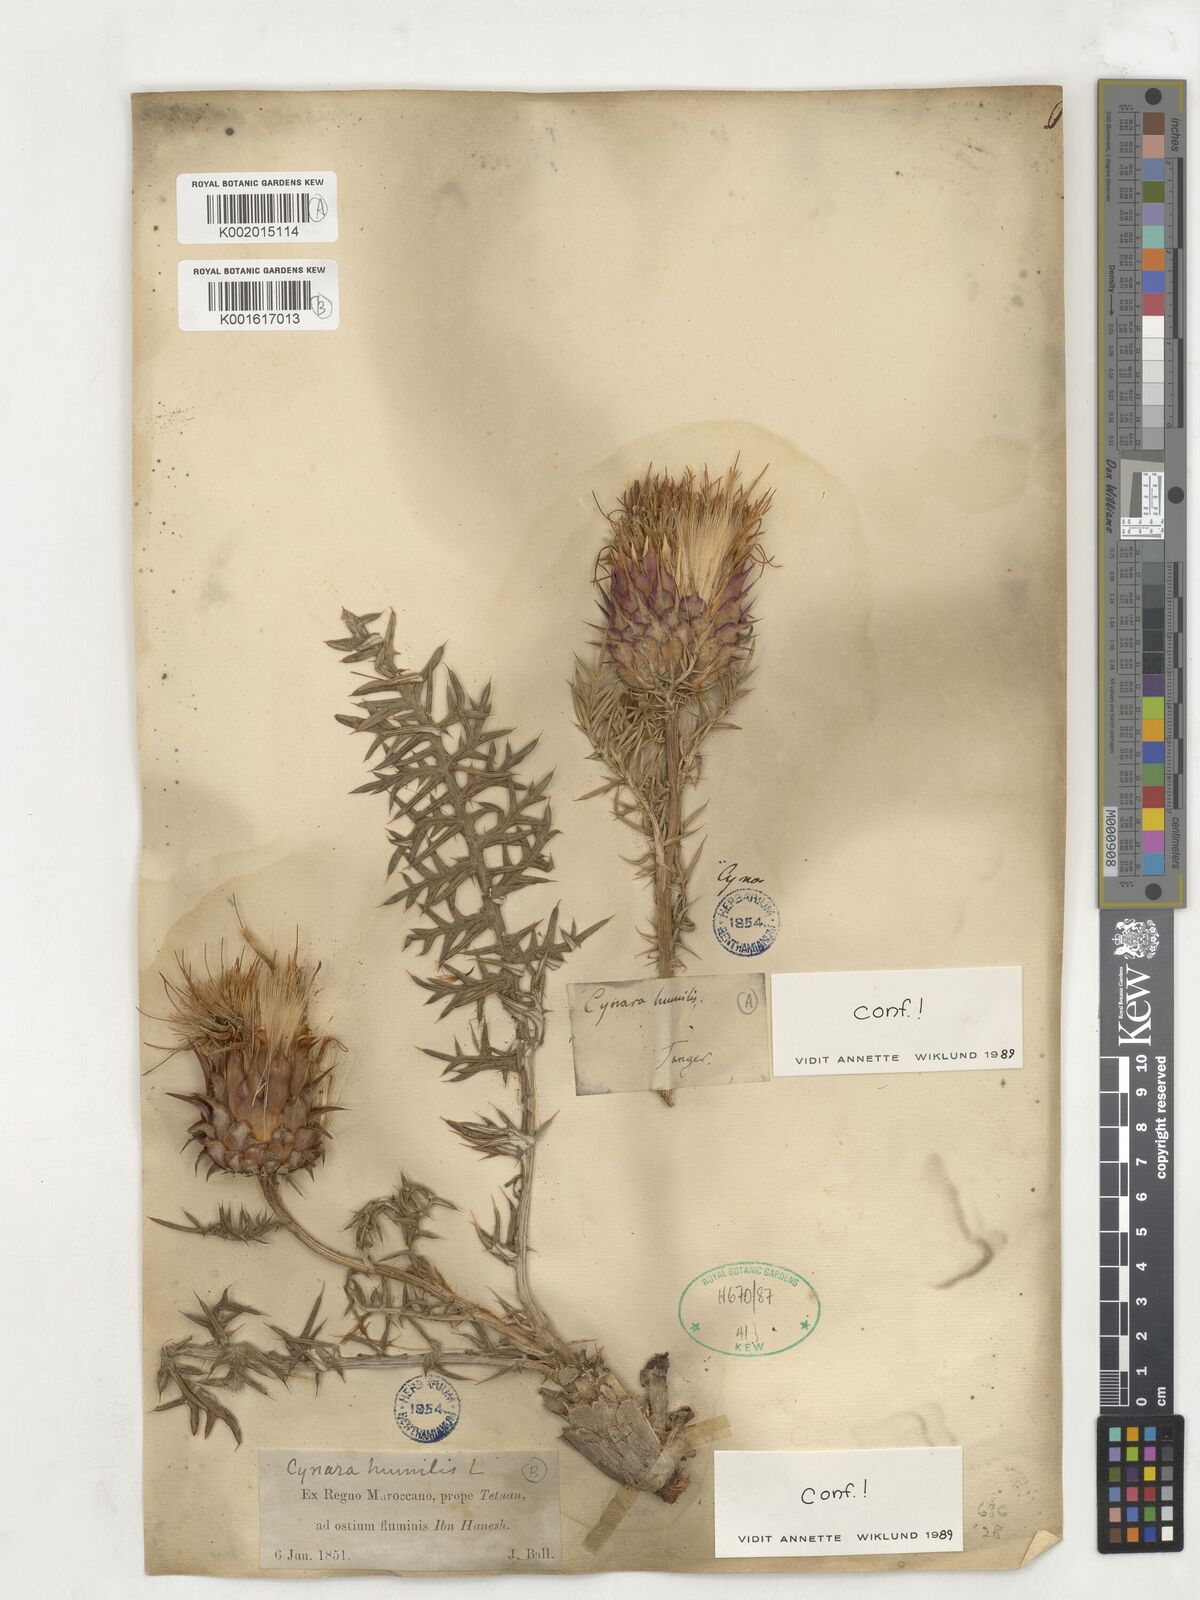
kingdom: Plantae
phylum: Tracheophyta
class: Magnoliopsida
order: Asterales
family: Asteraceae
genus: Cynara
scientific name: Cynara humilis
